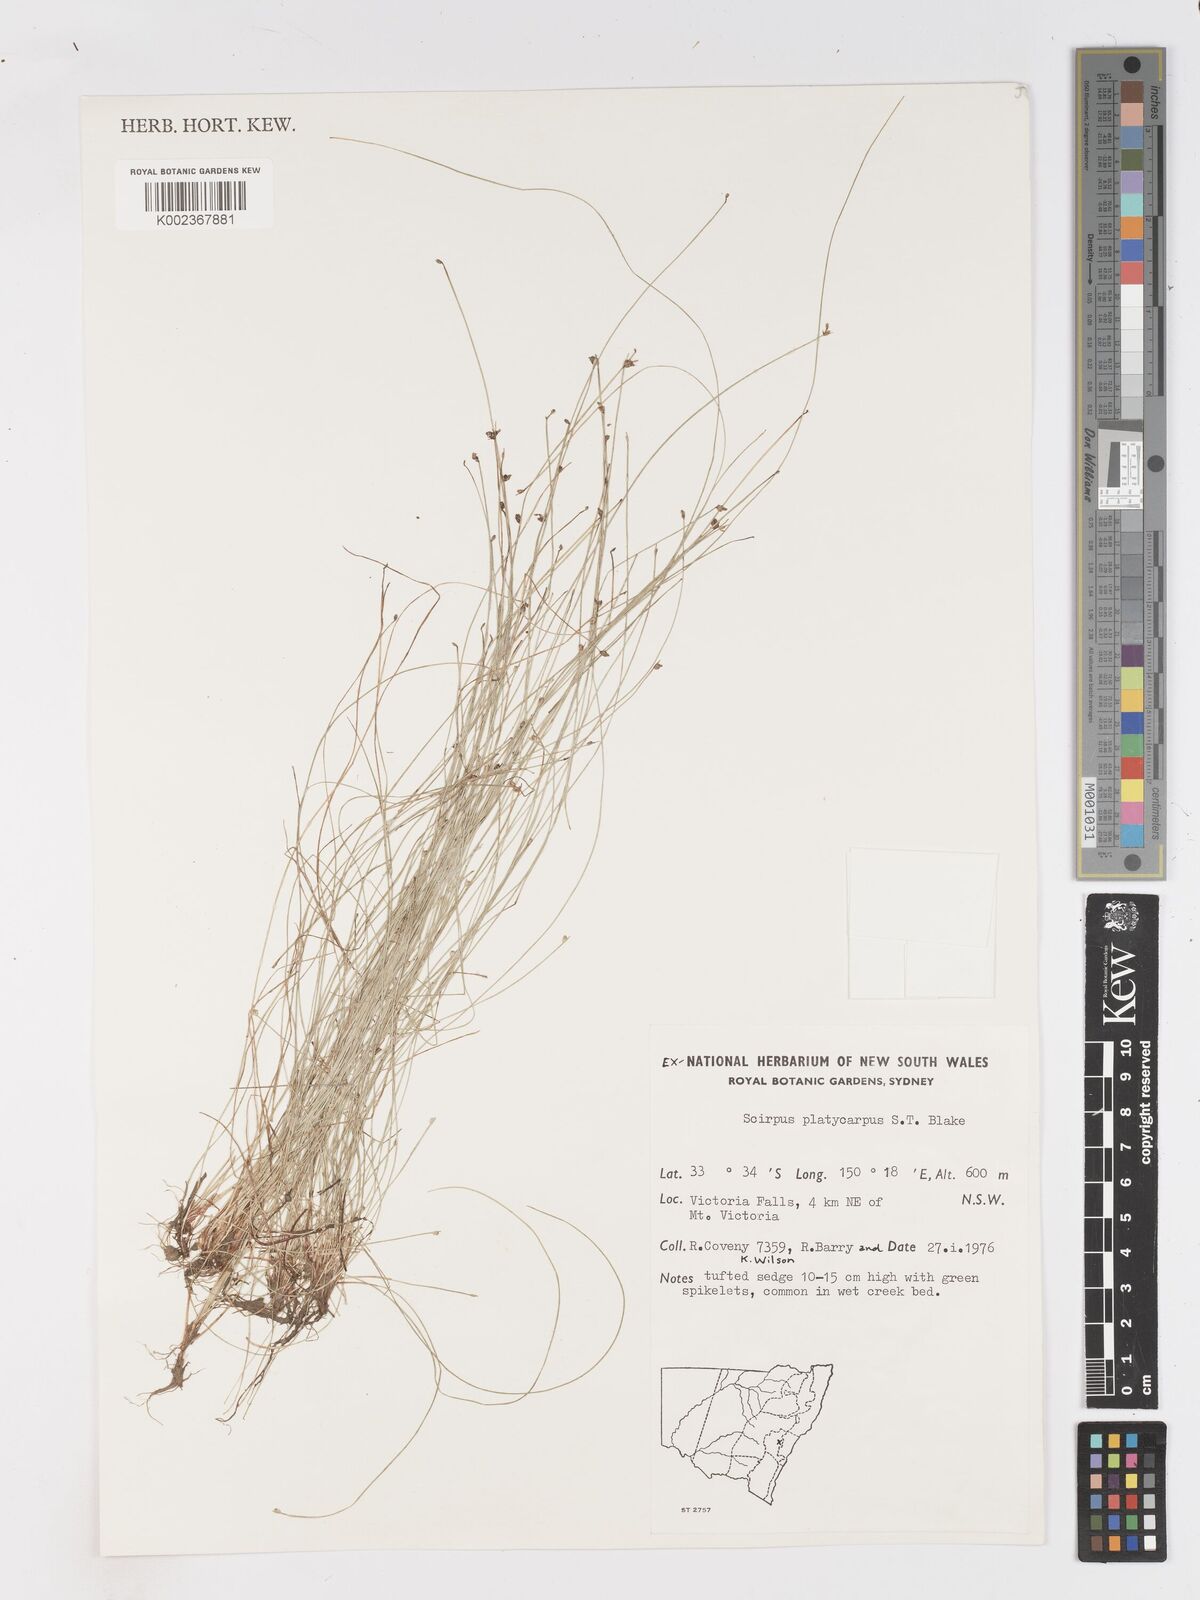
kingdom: Plantae
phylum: Tracheophyta
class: Liliopsida
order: Poales
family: Cyperaceae
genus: Isolepis
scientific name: Isolepis cernua
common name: Slender club-rush
